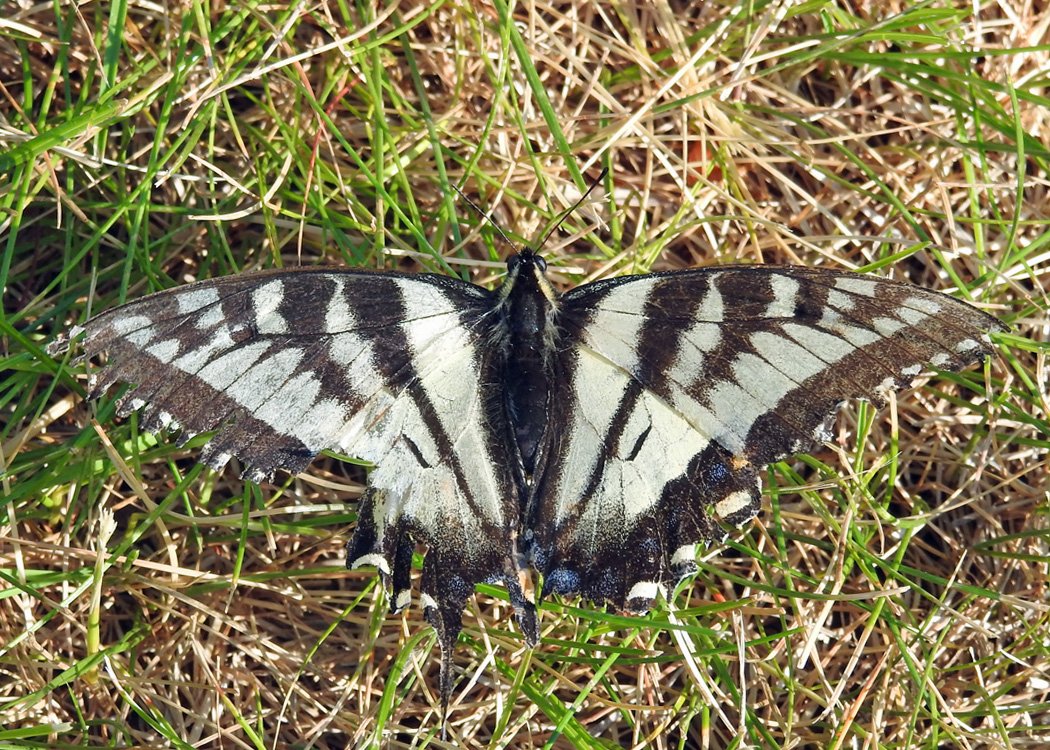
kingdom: Animalia
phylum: Arthropoda
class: Insecta
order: Lepidoptera
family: Papilionidae
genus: Pterourus
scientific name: Pterourus canadensis
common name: Canadian Tiger Swallowtail
